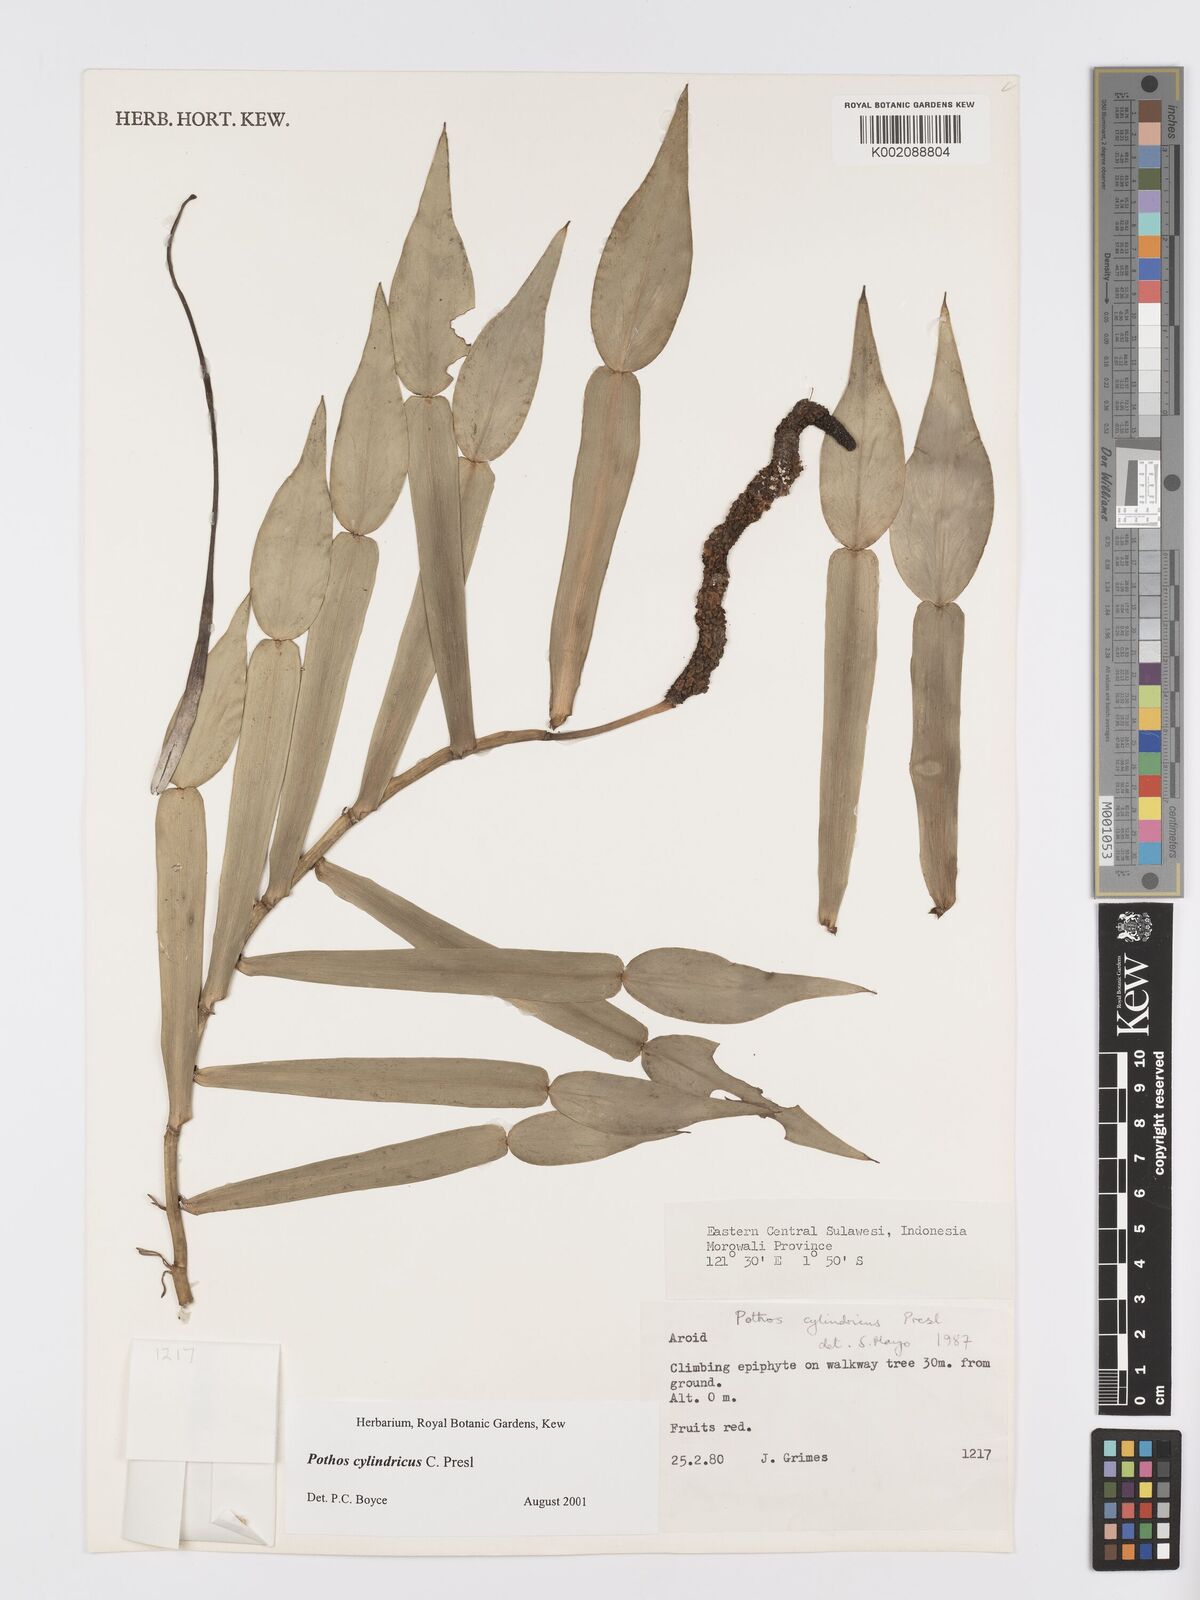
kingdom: Plantae
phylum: Tracheophyta
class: Liliopsida
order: Alismatales
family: Araceae
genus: Pothos
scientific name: Pothos cylindricus
